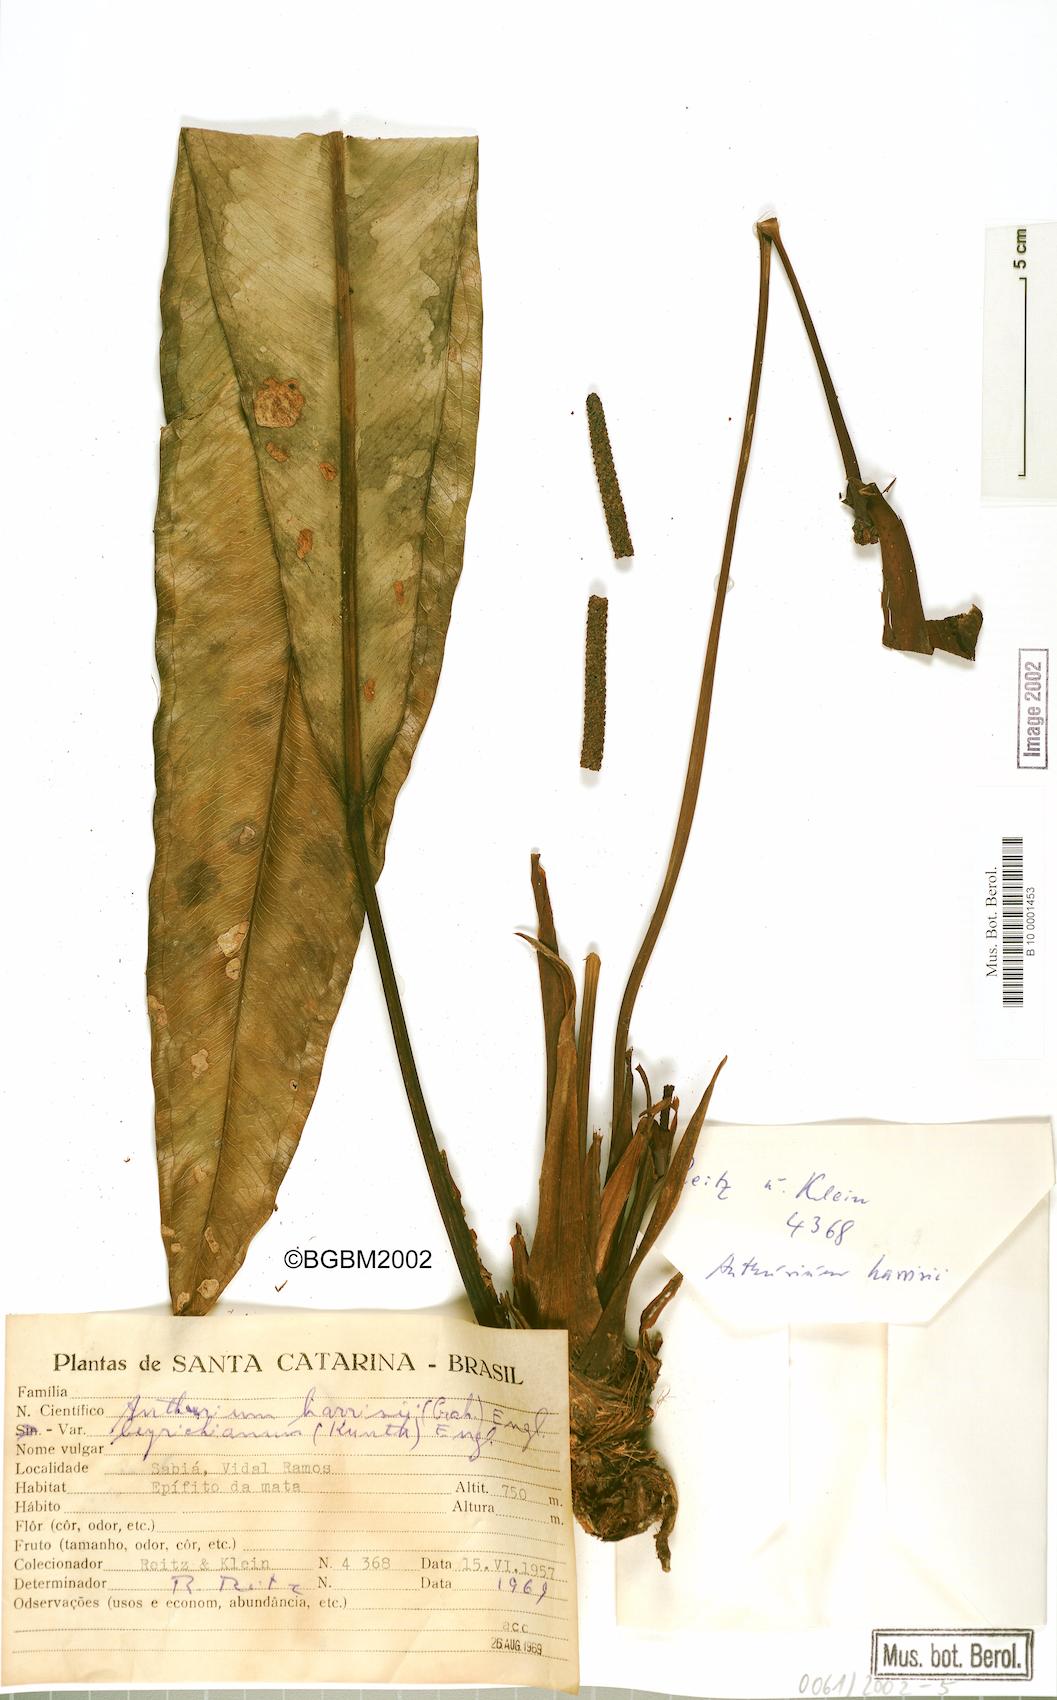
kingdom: Plantae
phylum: Tracheophyta
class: Liliopsida
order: Alismatales
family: Araceae
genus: Anthurium
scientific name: Anthurium intermedium
